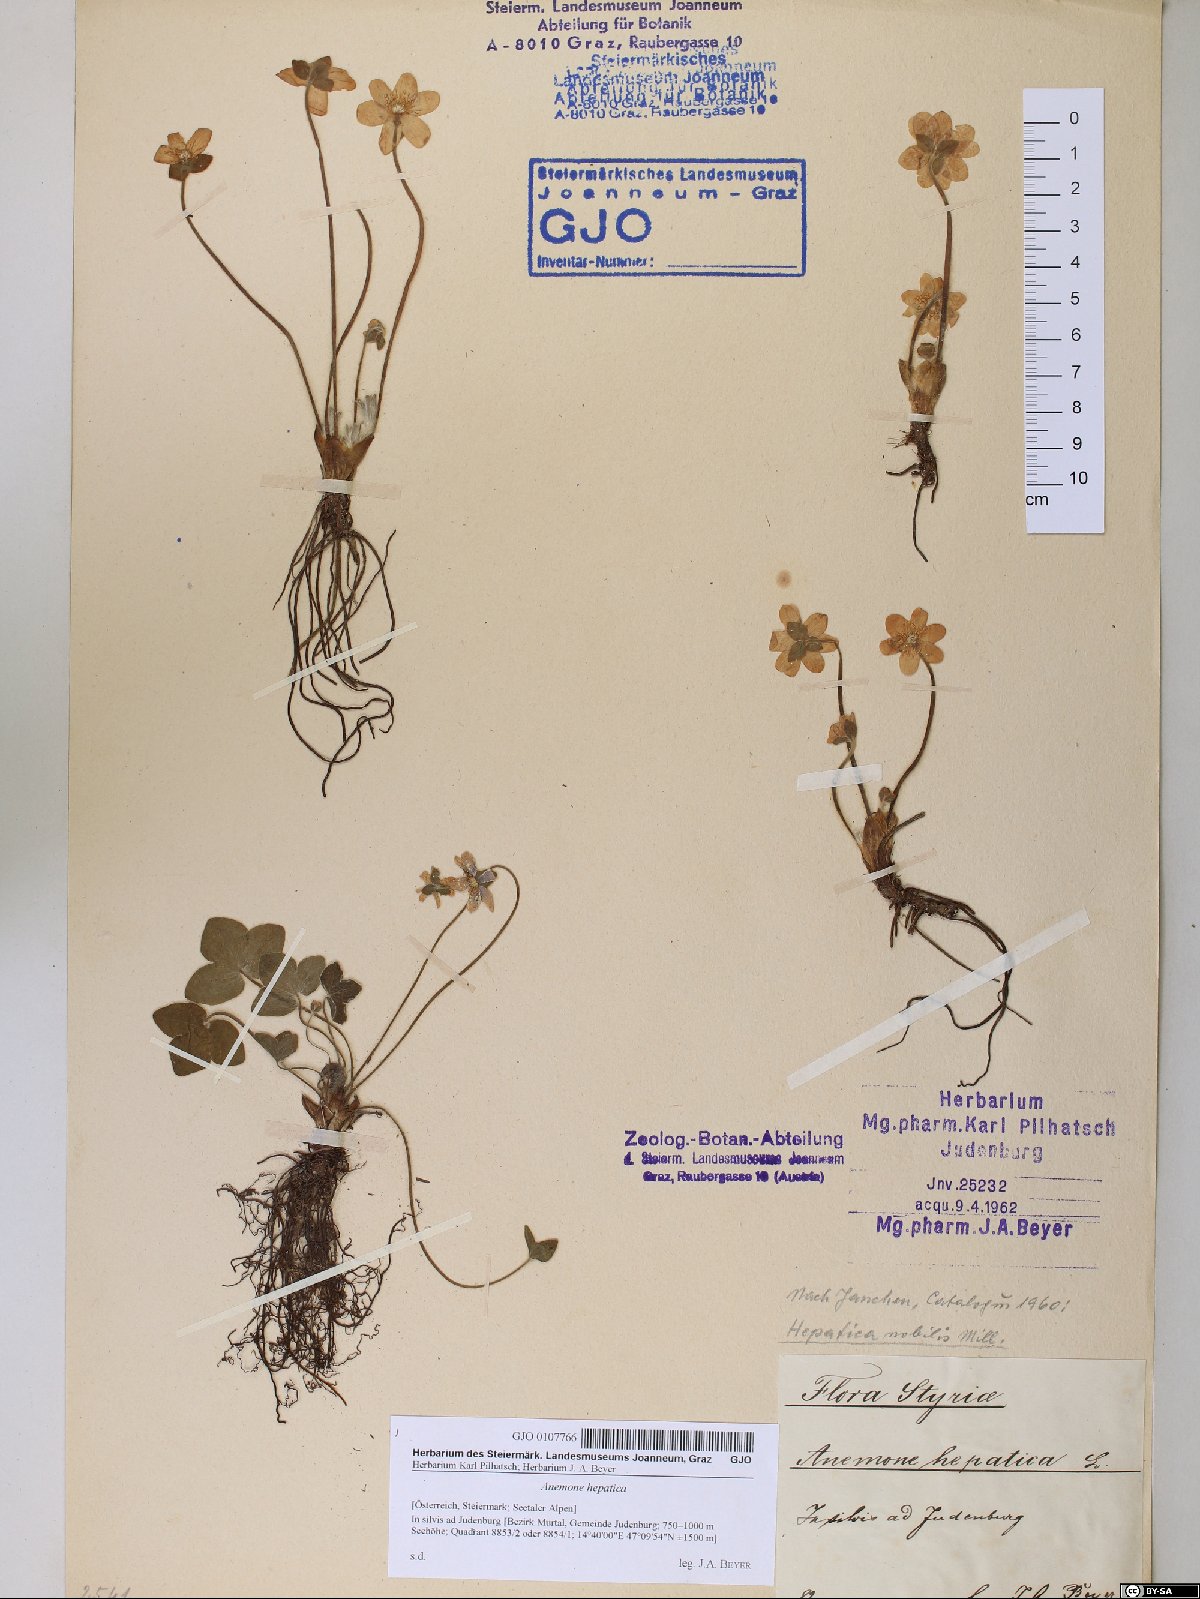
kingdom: Plantae
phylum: Tracheophyta
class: Magnoliopsida
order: Ranunculales
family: Ranunculaceae
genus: Hepatica
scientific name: Hepatica nobilis
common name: Liverleaf
